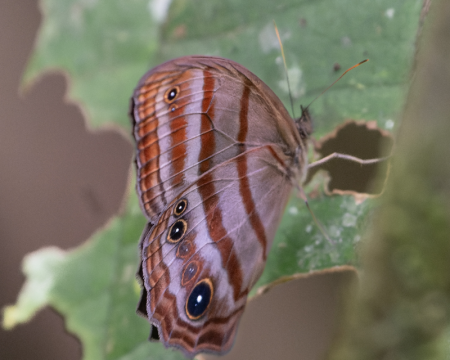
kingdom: Animalia
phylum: Arthropoda
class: Insecta
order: Lepidoptera
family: Nymphalidae
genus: Magneuptychia
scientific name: Magneuptychia tiessa
